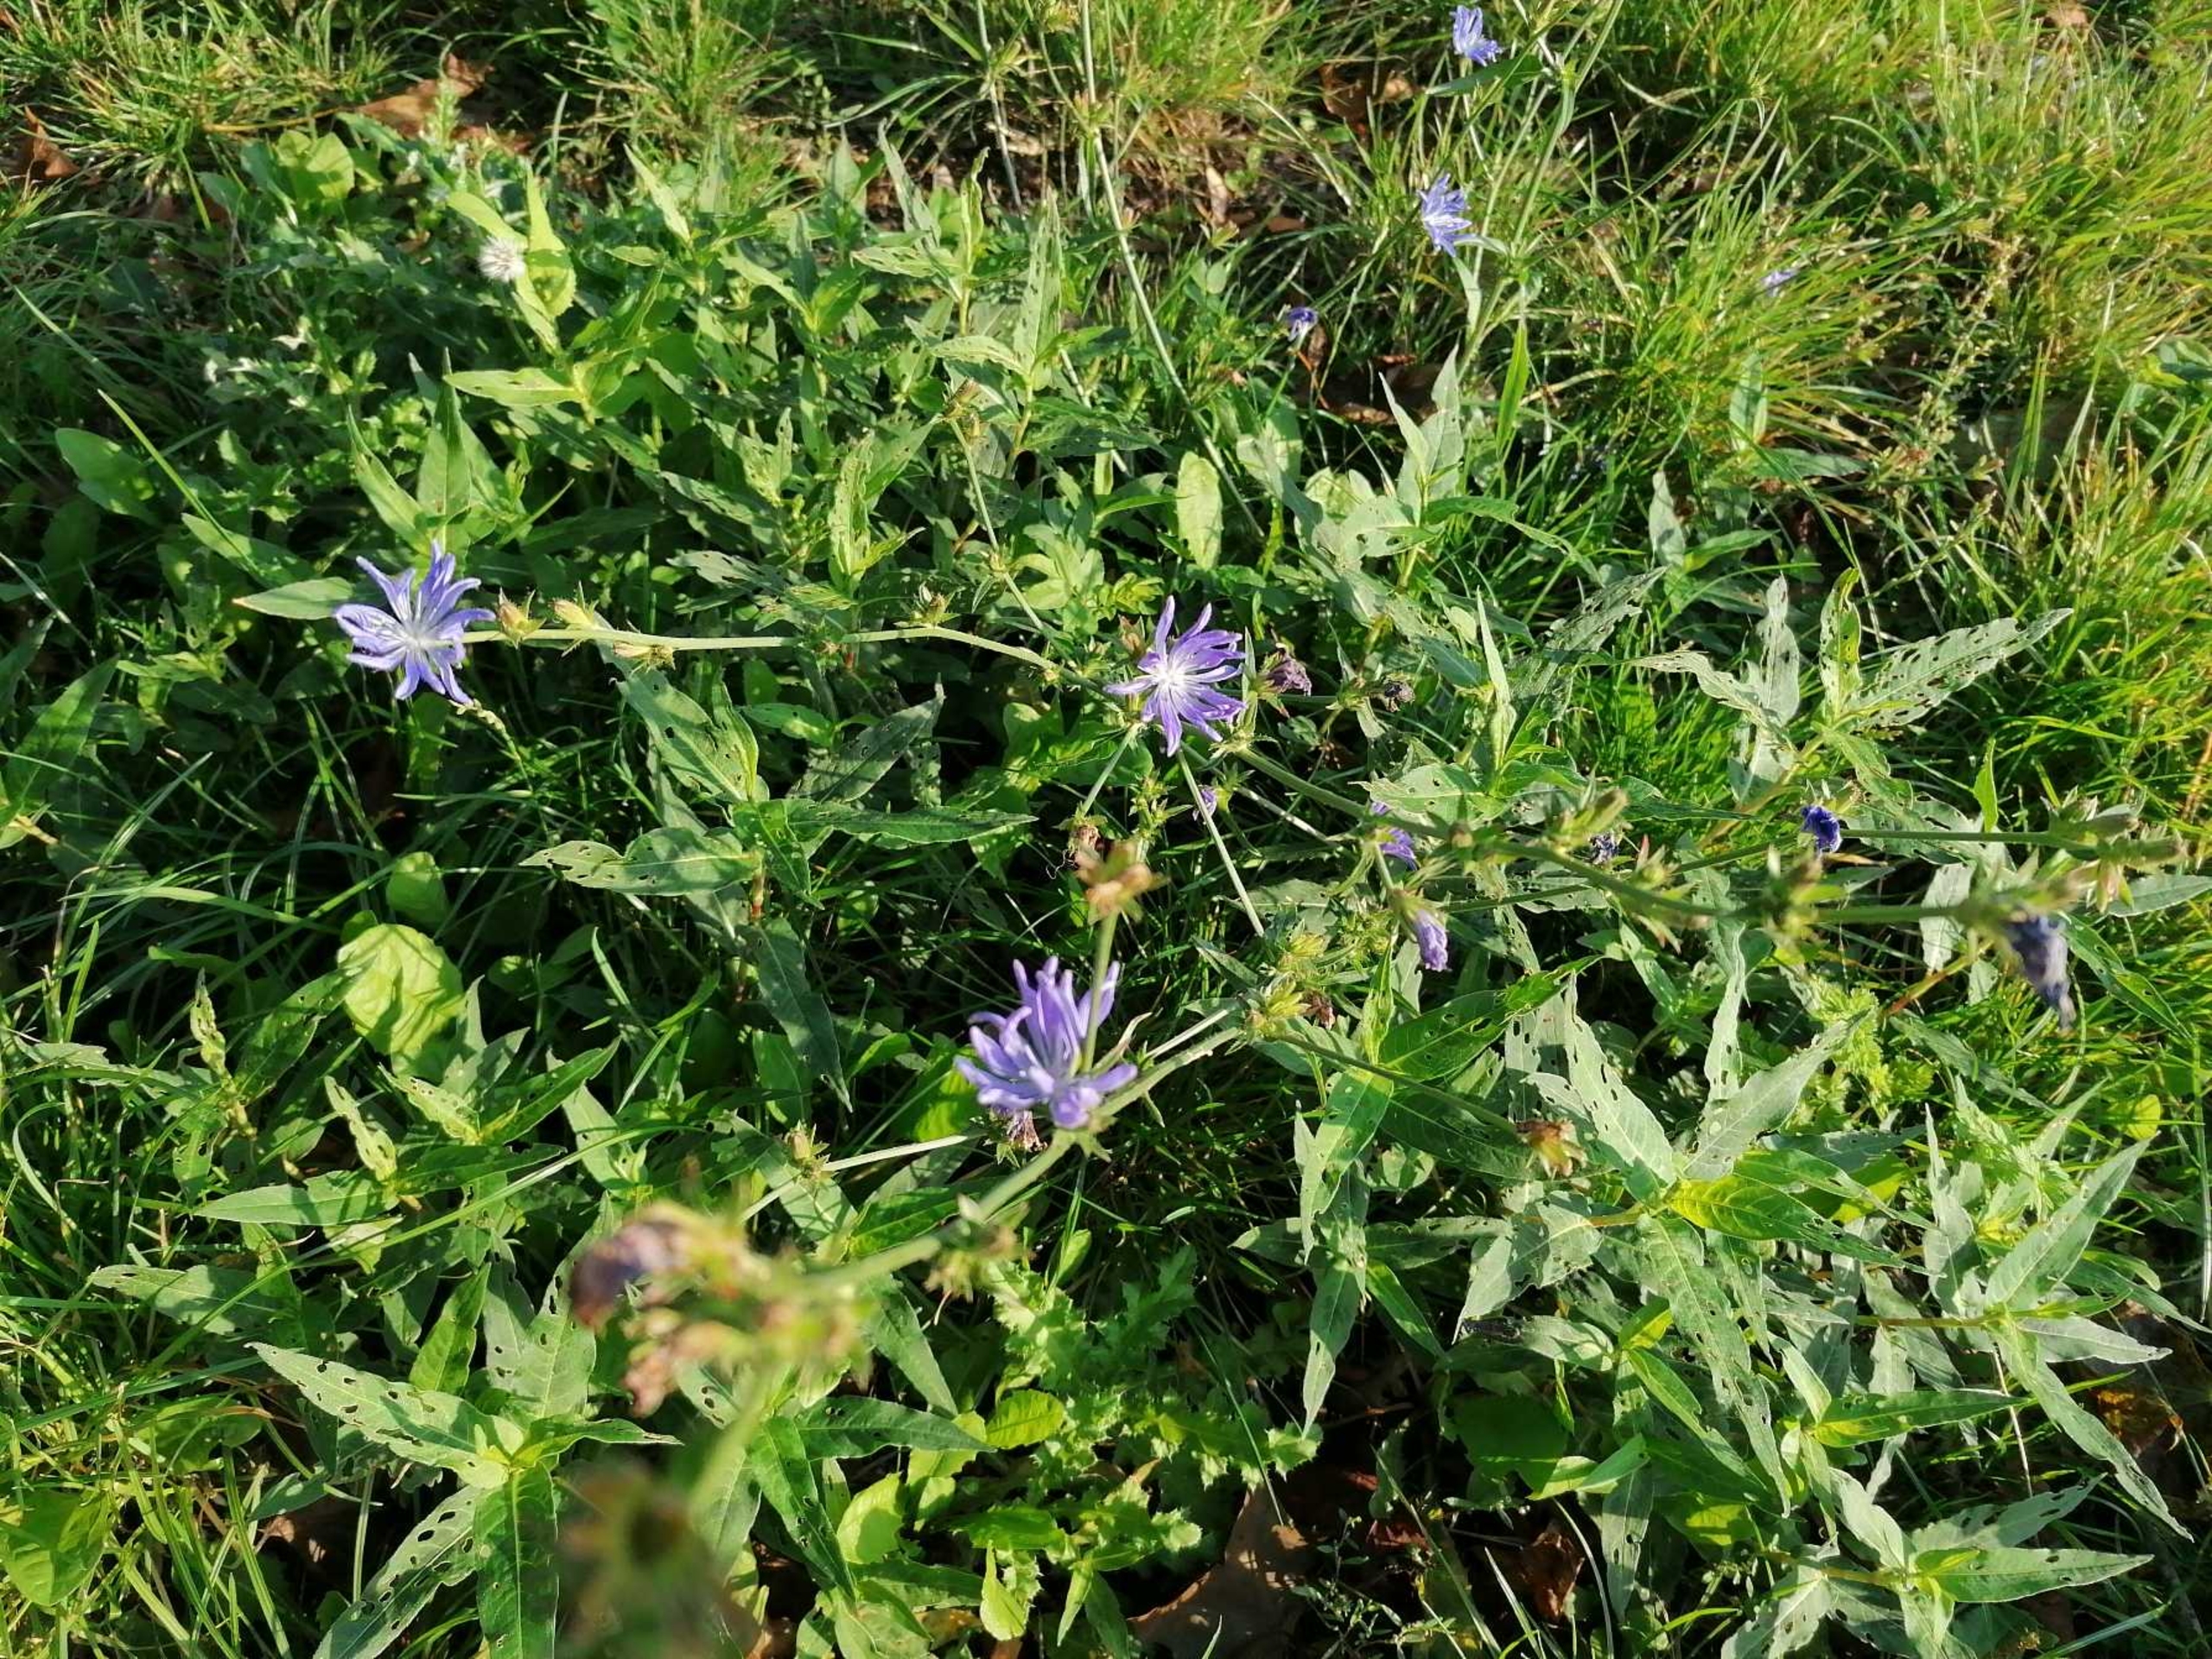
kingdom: Plantae
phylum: Tracheophyta
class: Magnoliopsida
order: Asterales
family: Asteraceae
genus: Cichorium
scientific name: Cichorium intybus
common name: Cikorie
